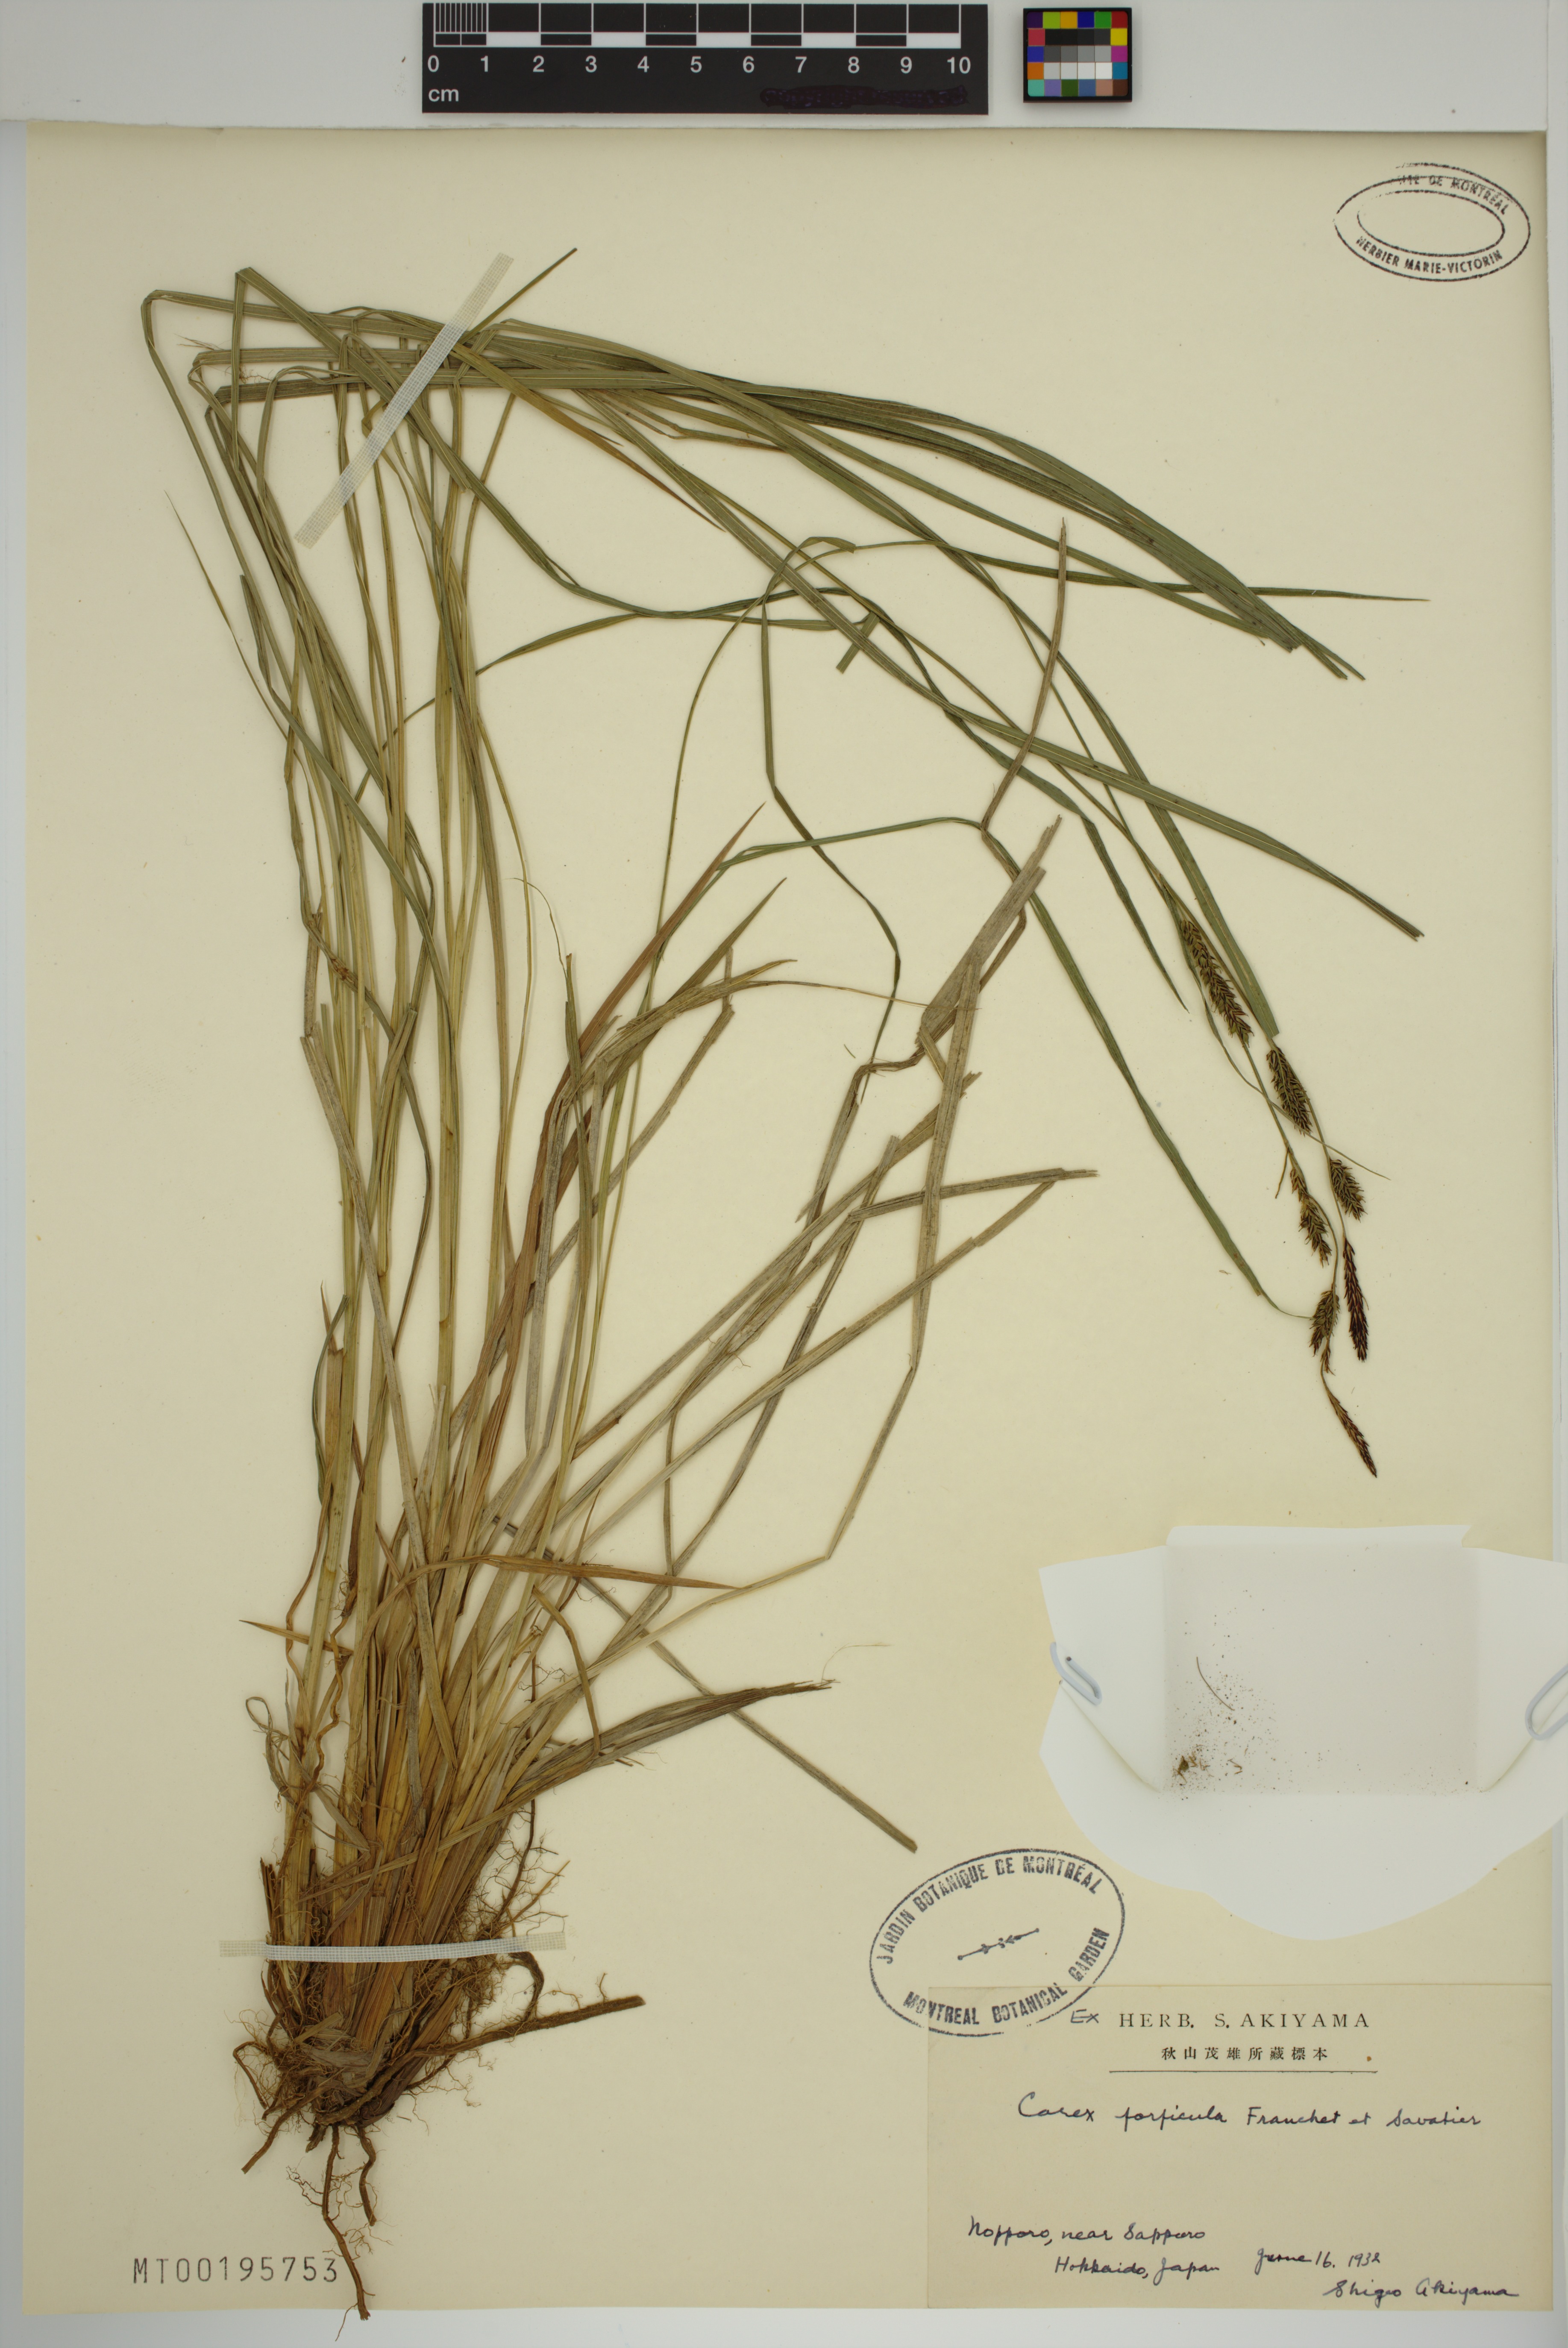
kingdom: Plantae
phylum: Tracheophyta
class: Liliopsida
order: Poales
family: Cyperaceae
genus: Carex
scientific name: Carex forficula
